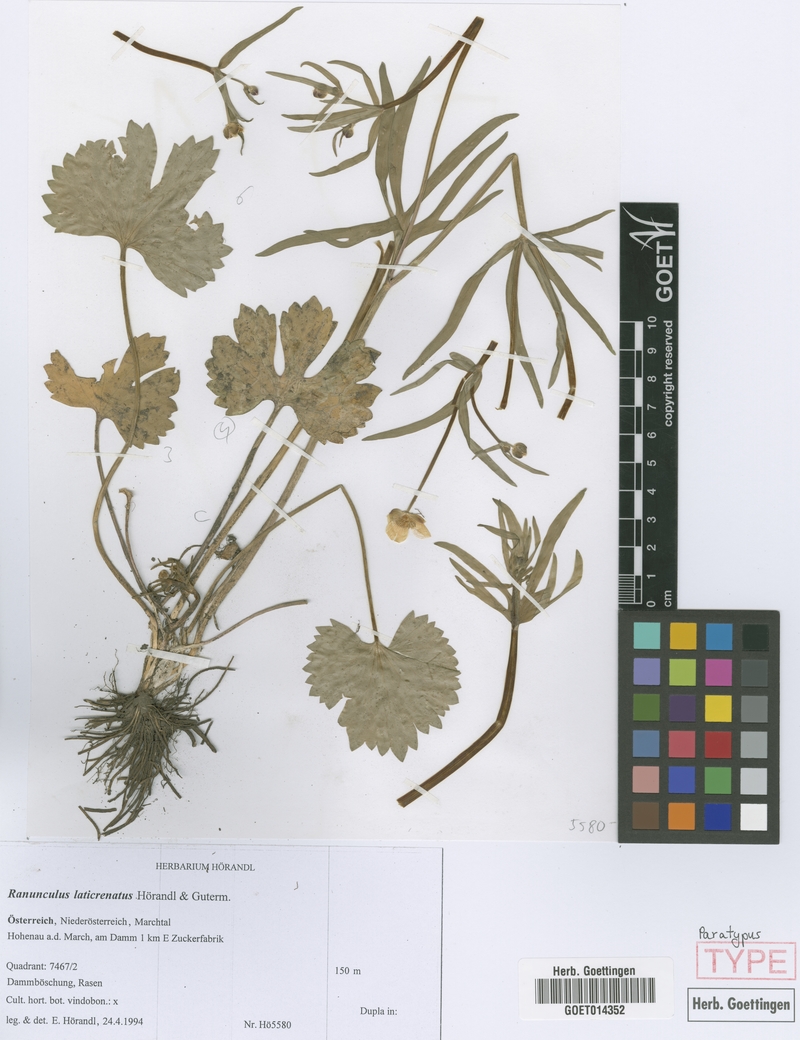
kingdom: Plantae
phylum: Tracheophyta
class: Magnoliopsida
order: Ranunculales
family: Ranunculaceae
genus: Ranunculus
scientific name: Ranunculus laticrenatus
